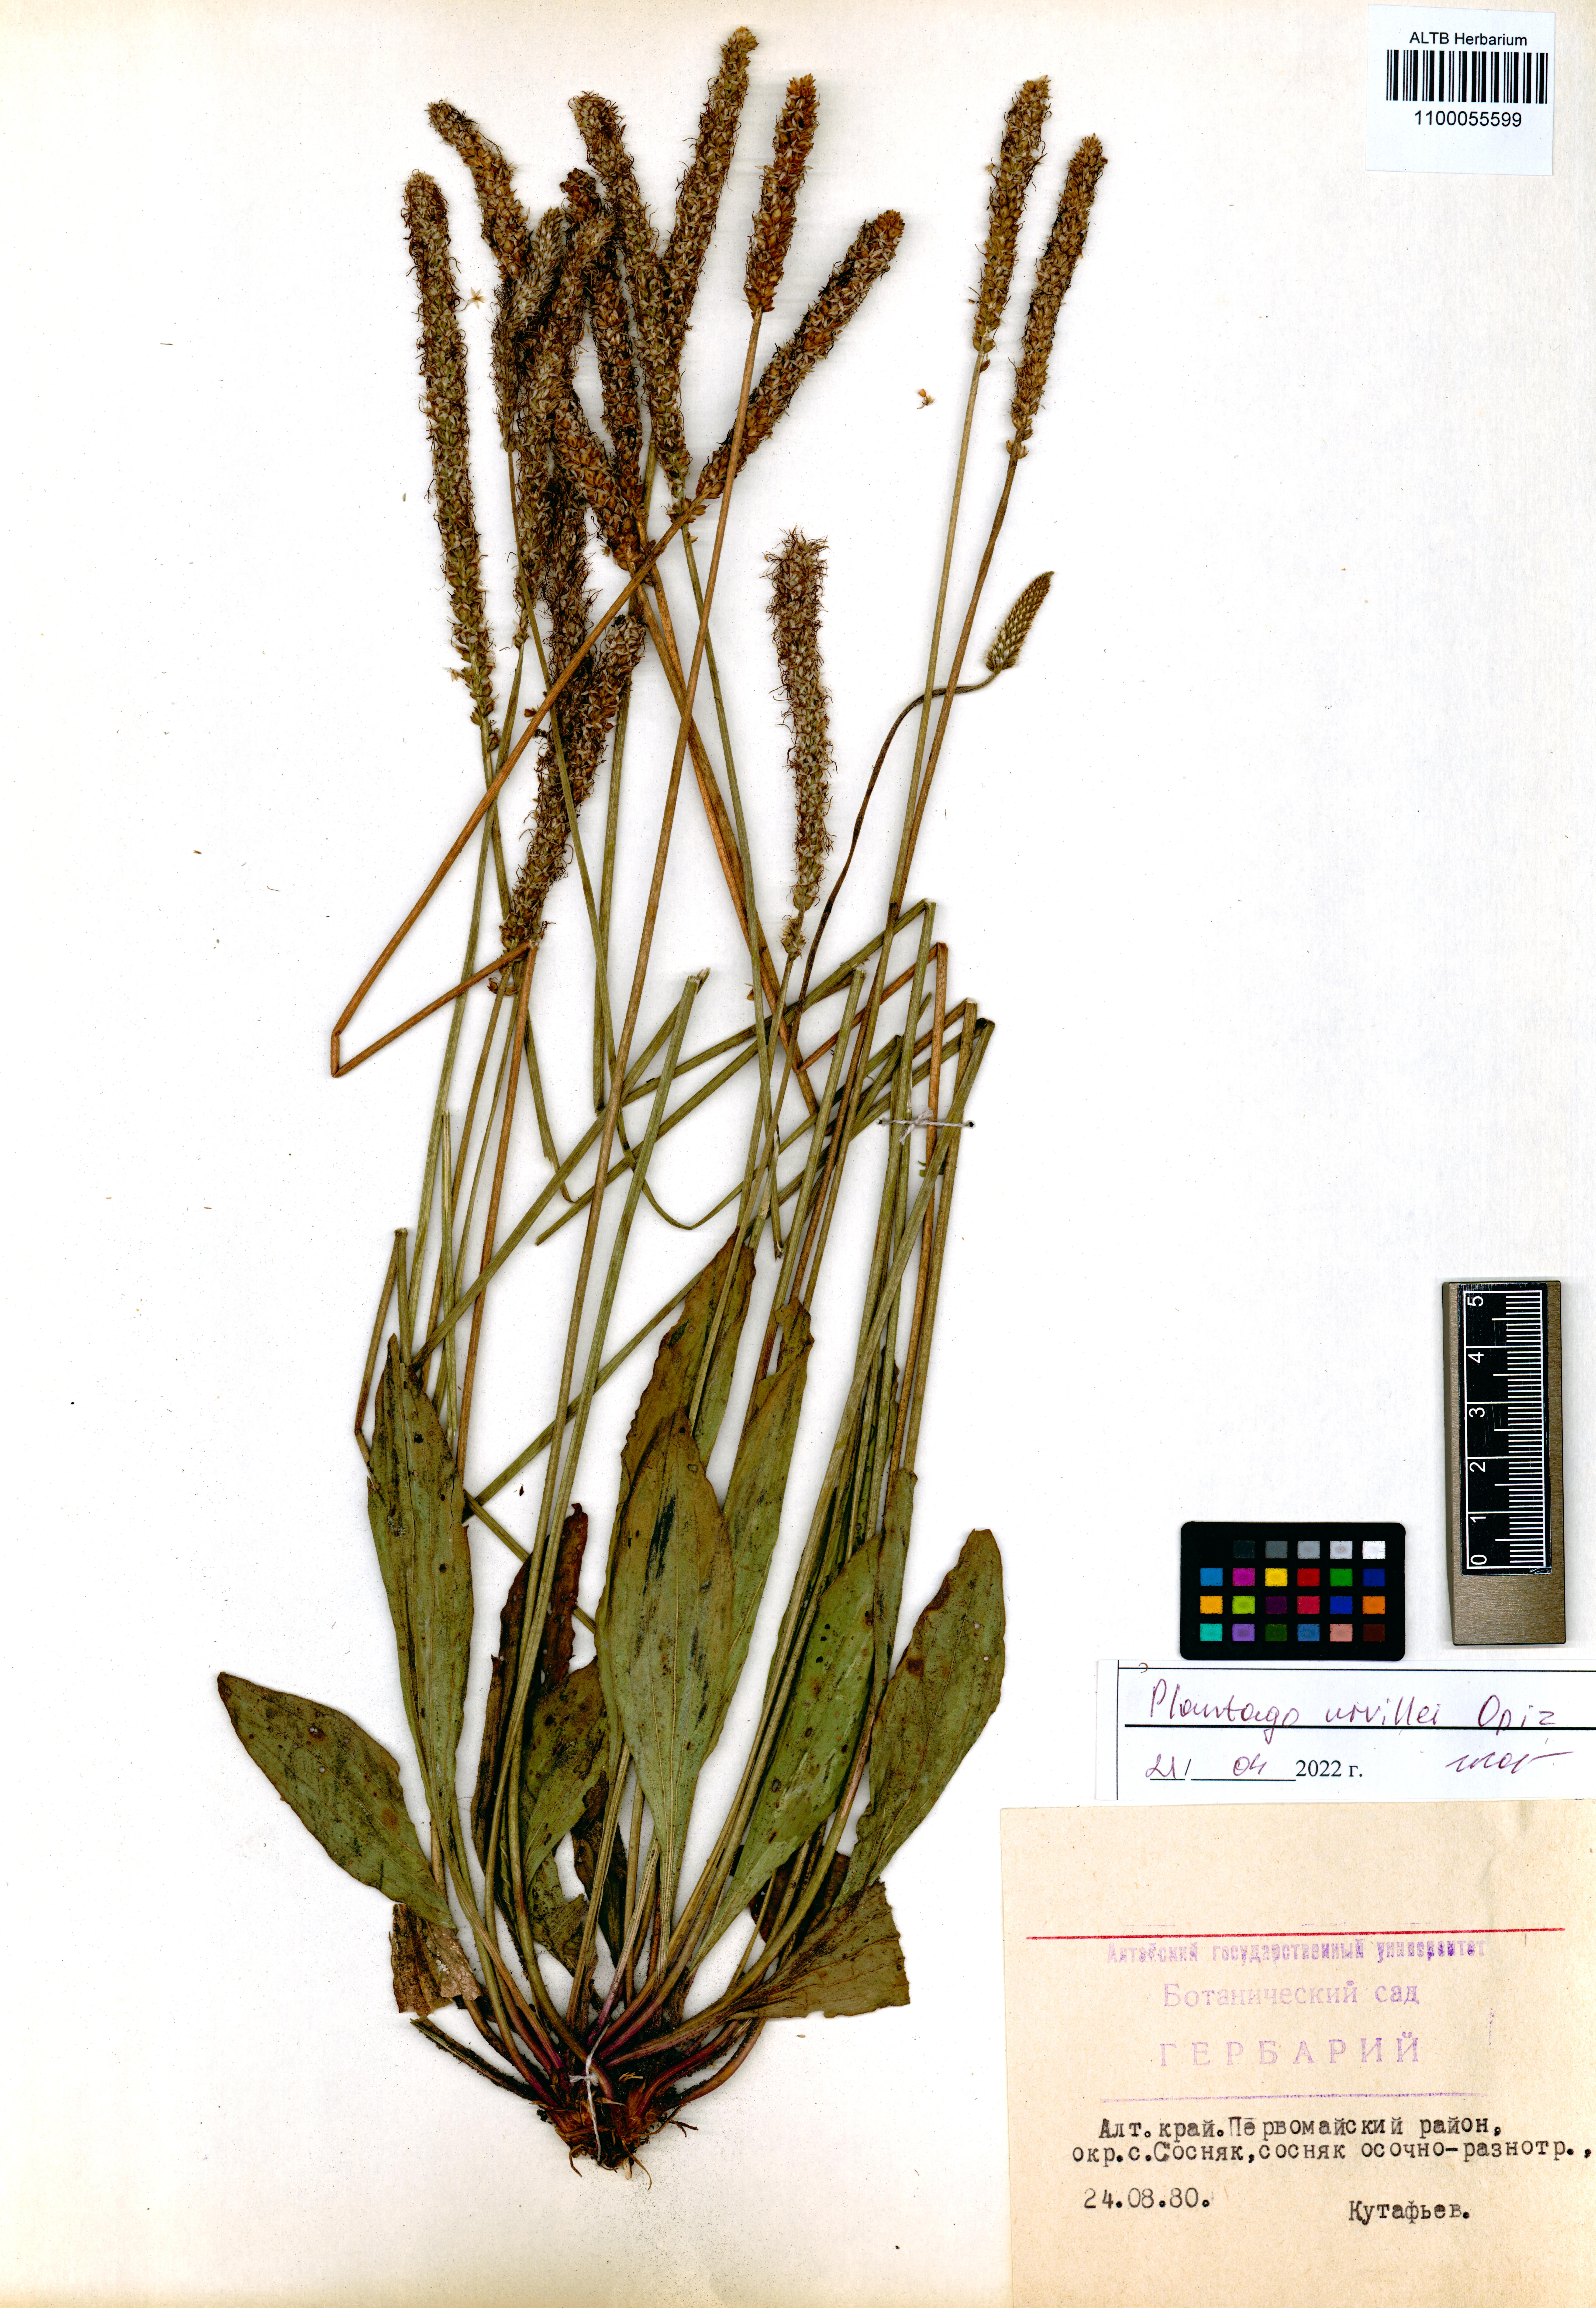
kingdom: Plantae
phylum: Tracheophyta
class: Magnoliopsida
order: Lamiales
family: Plantaginaceae
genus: Plantago
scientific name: Plantago urvillei
